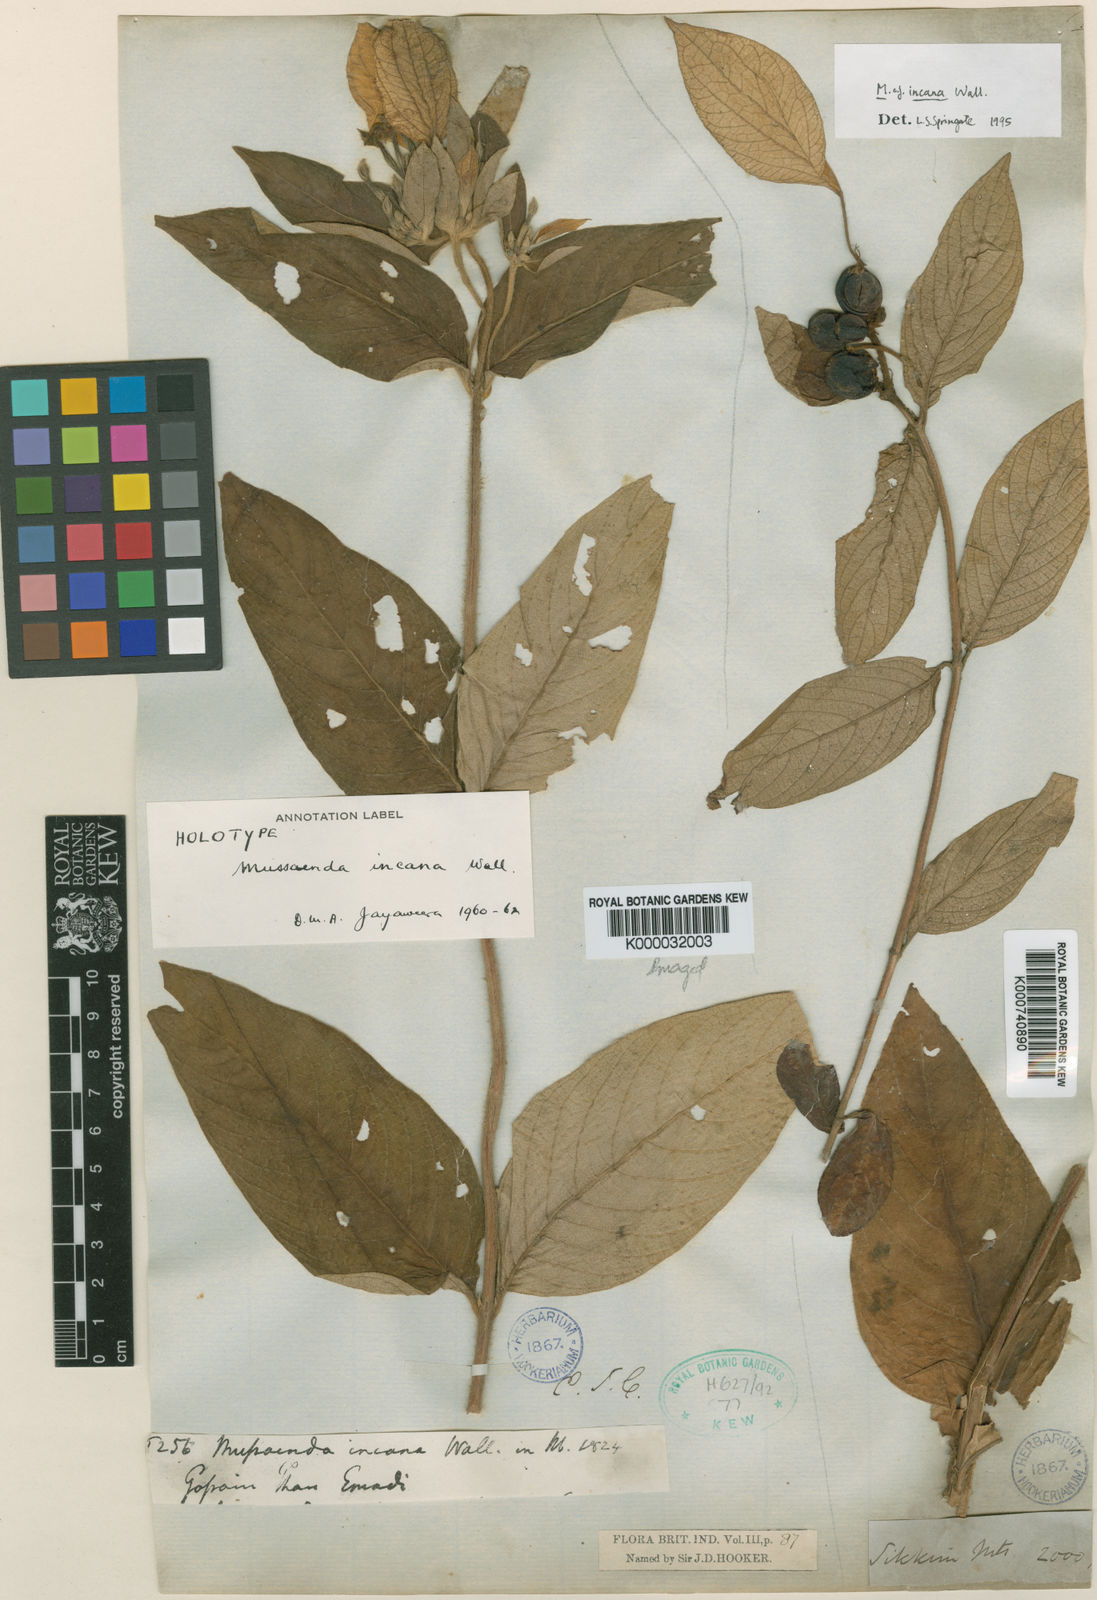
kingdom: Plantae
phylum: Tracheophyta
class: Magnoliopsida
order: Gentianales
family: Rubiaceae
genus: Mussaenda
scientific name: Mussaenda incana
